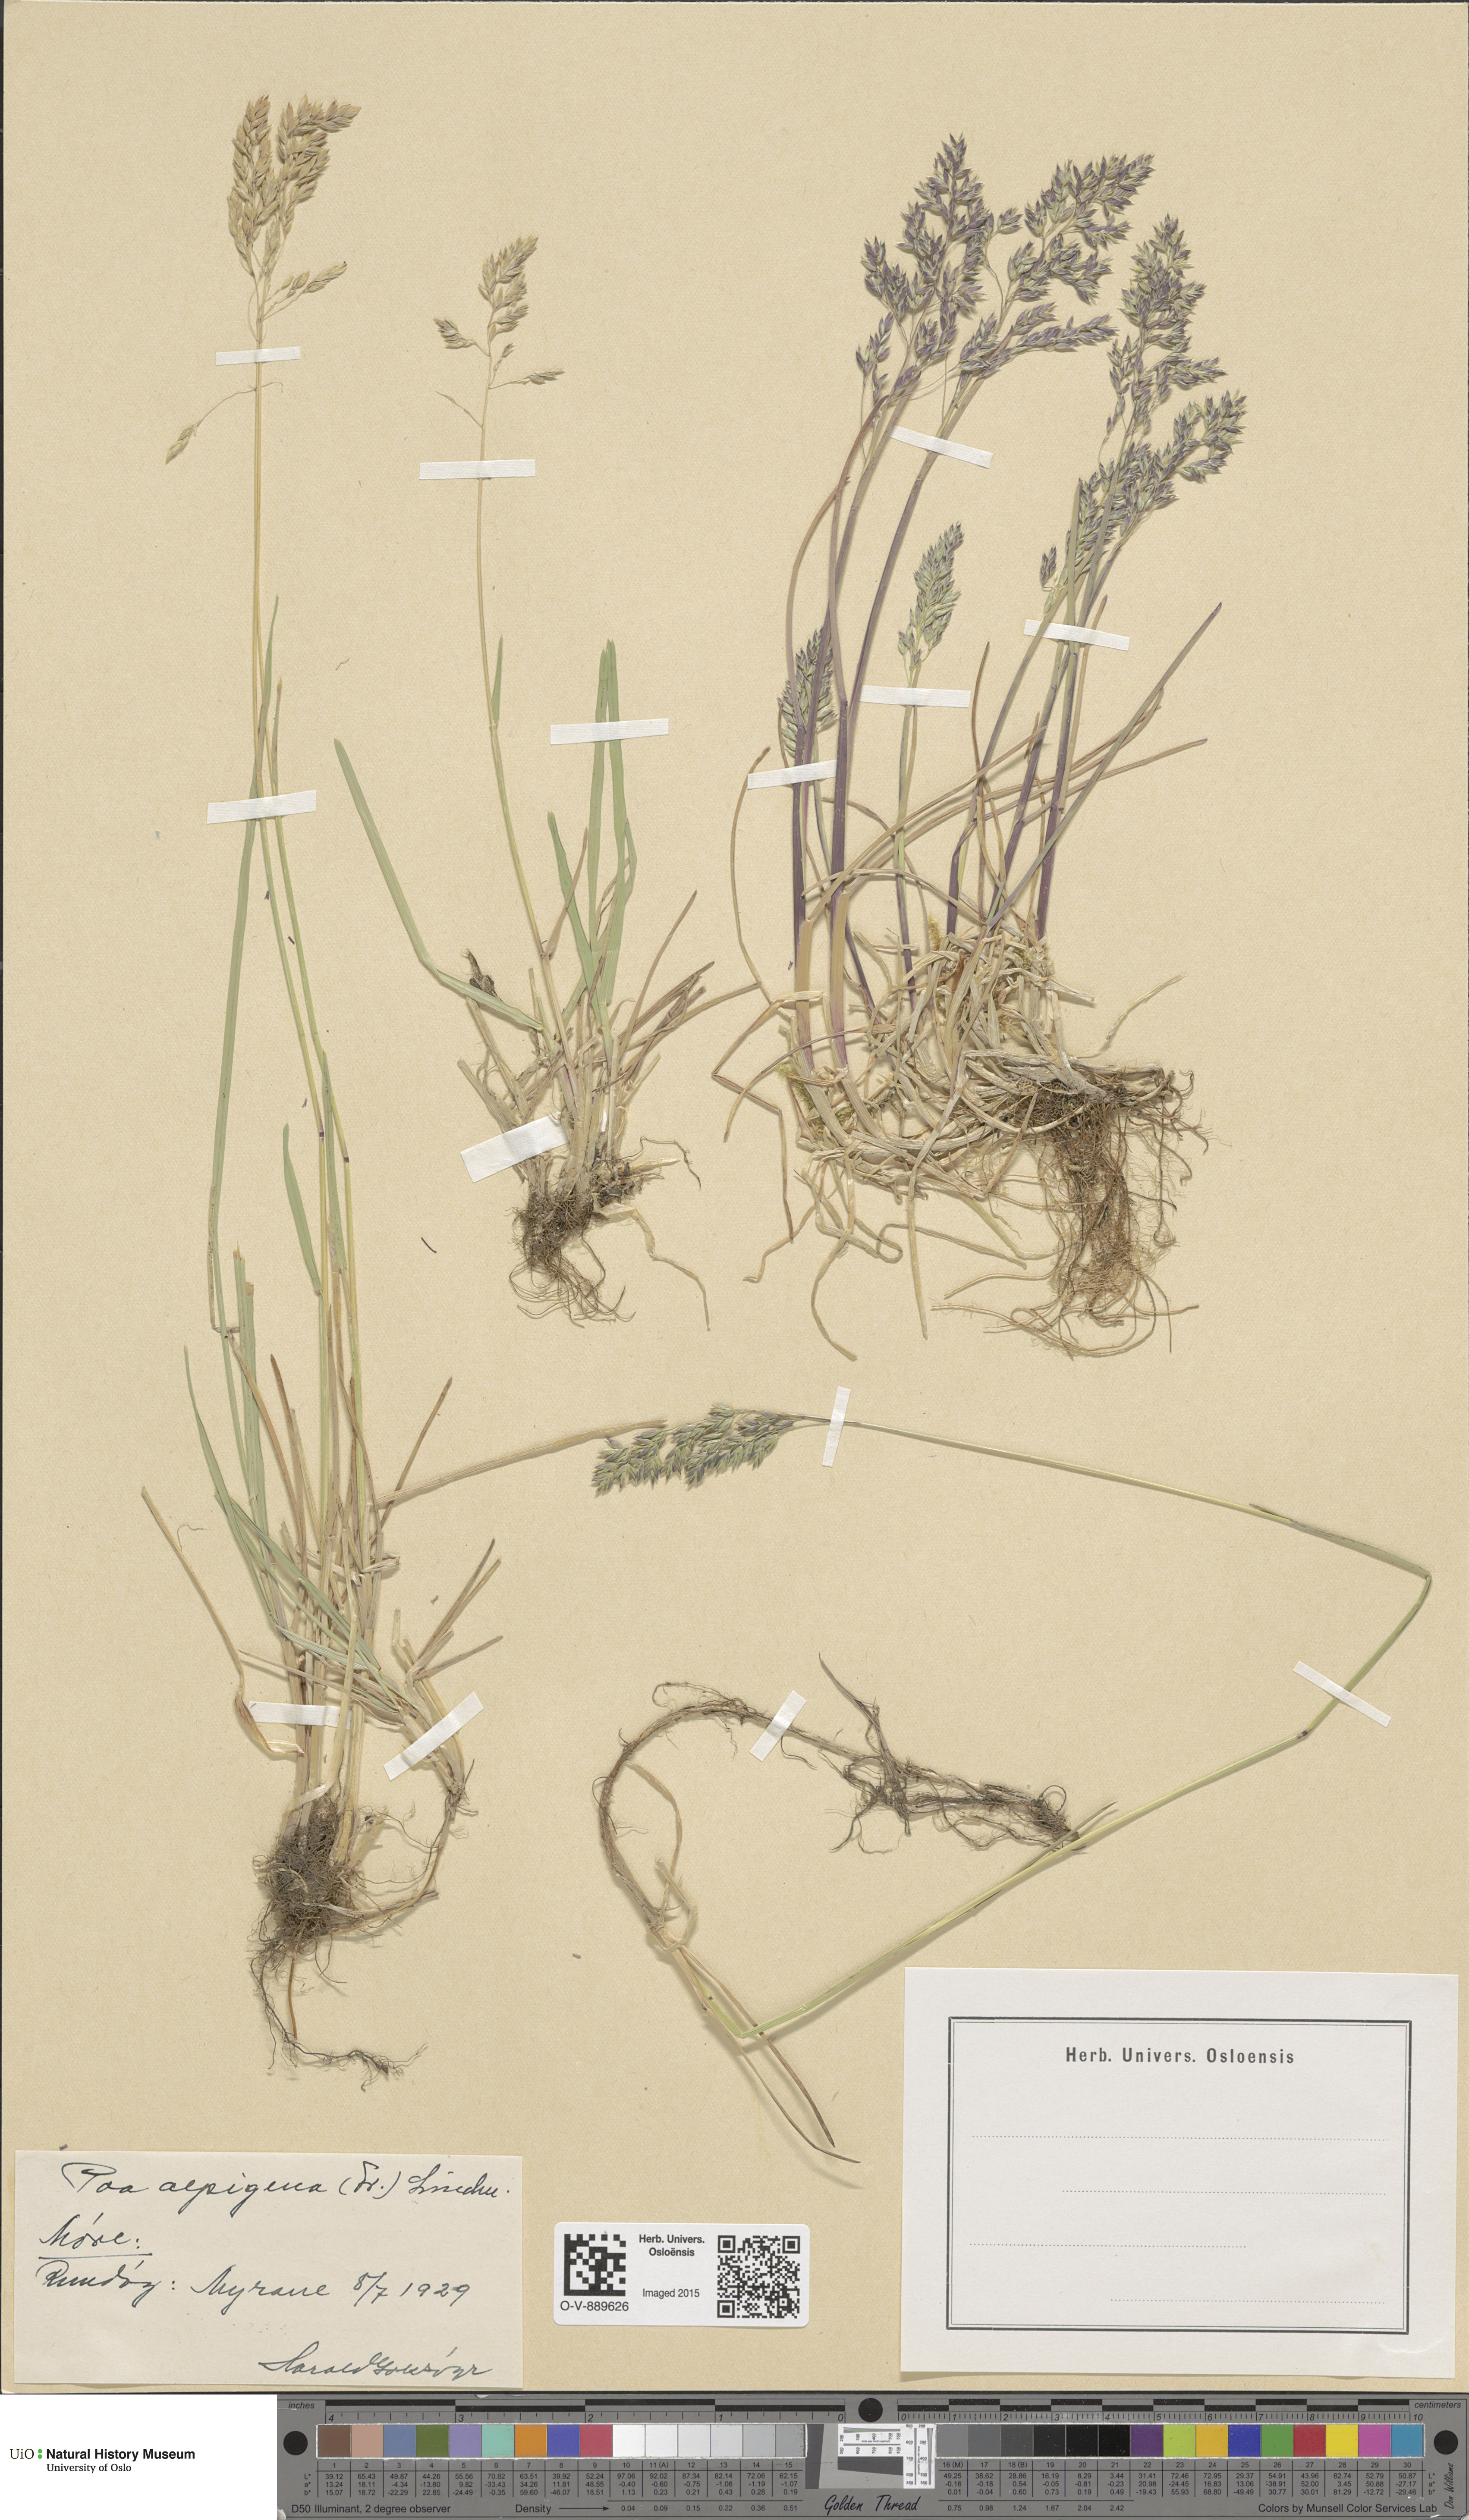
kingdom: Plantae
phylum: Tracheophyta
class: Liliopsida
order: Poales
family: Poaceae
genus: Poa
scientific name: Poa alpigena
